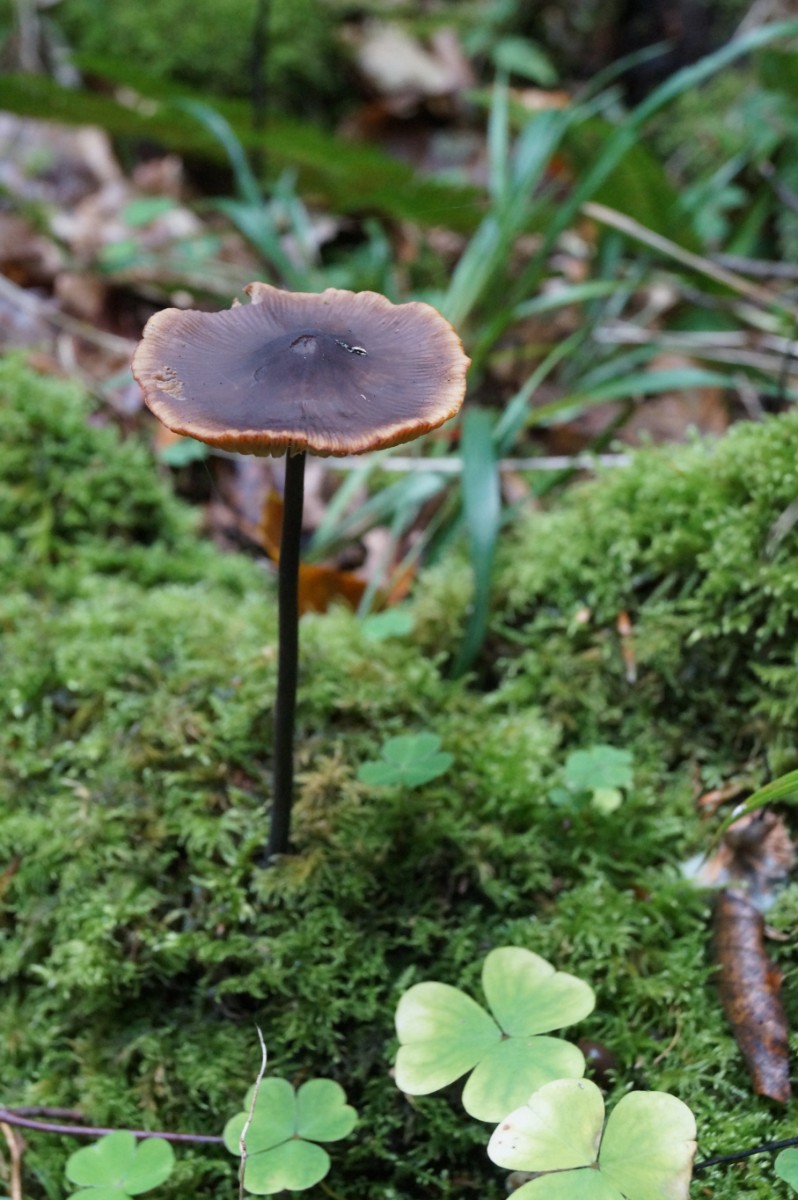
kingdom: Fungi
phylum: Basidiomycota
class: Agaricomycetes
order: Agaricales
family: Omphalotaceae
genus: Mycetinis
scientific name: Mycetinis alliaceus
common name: stor løghat
